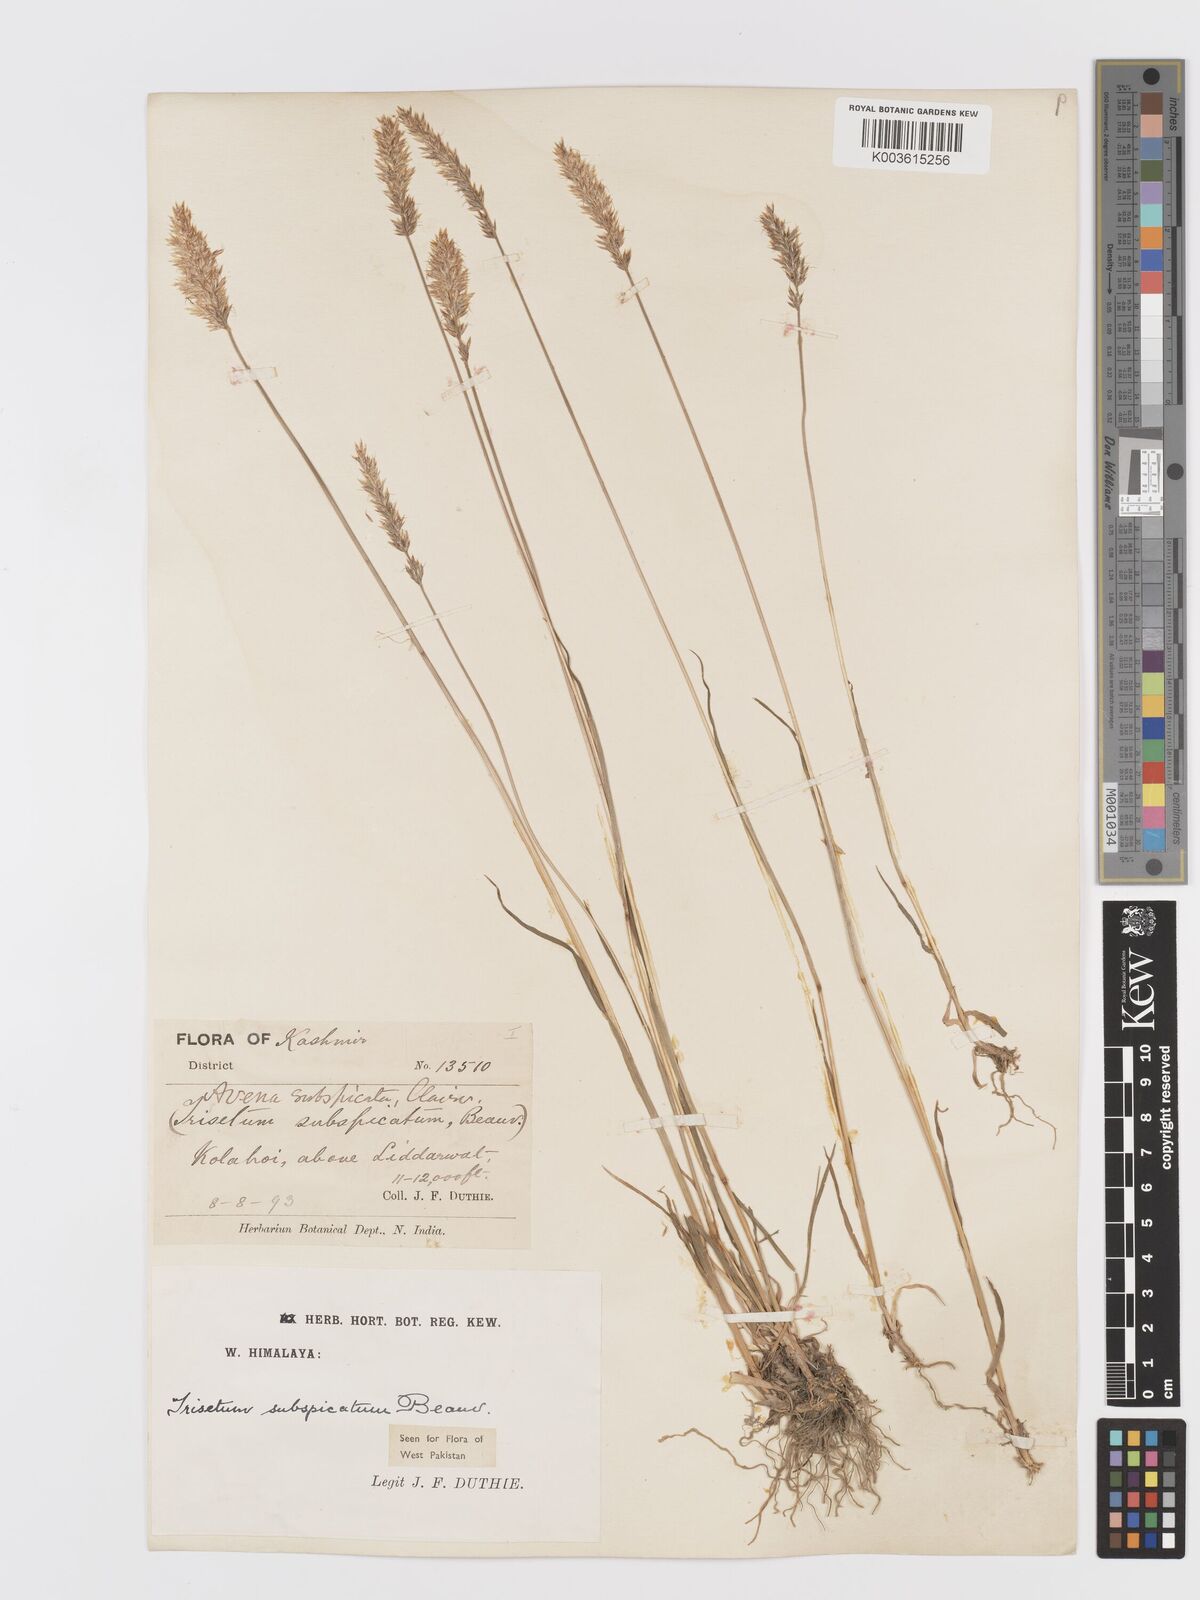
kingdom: Plantae
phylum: Tracheophyta
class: Liliopsida
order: Poales
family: Poaceae
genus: Koeleria
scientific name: Koeleria spicata
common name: Mountain trisetum
